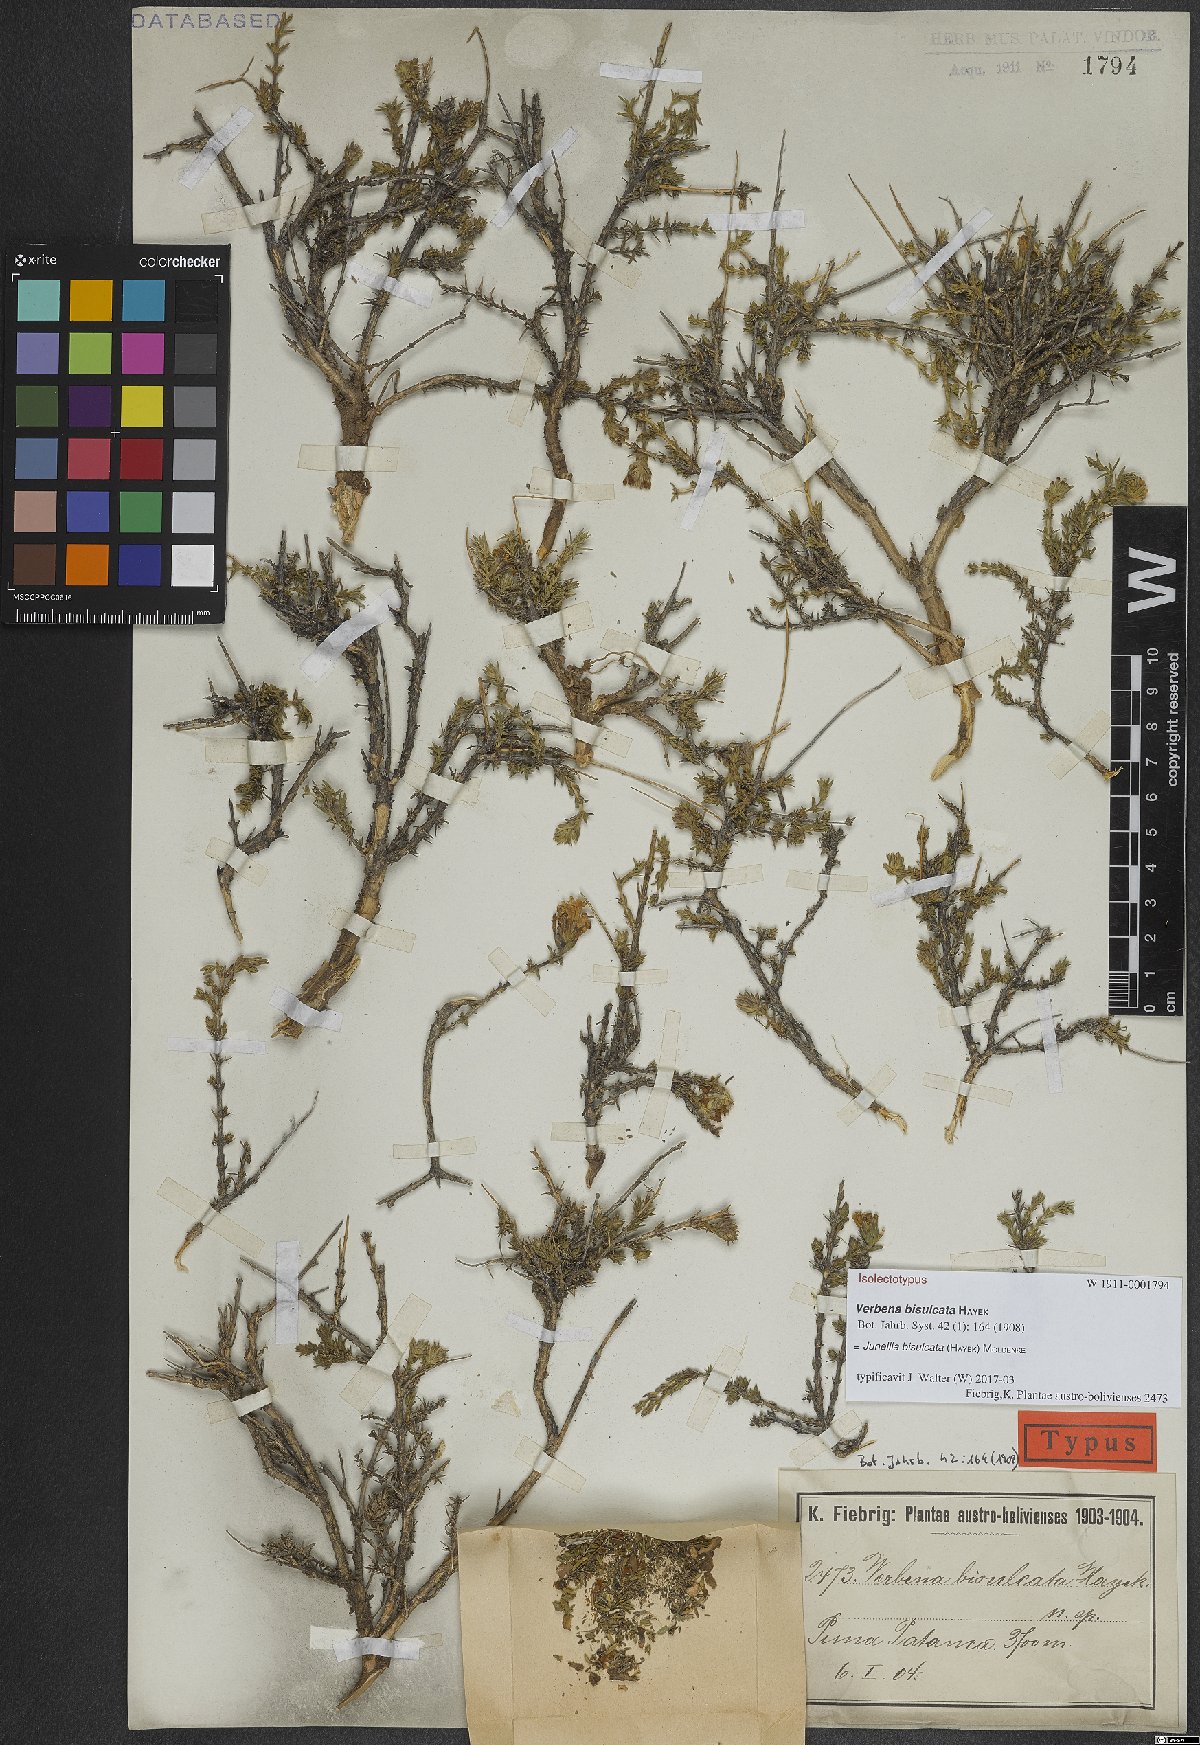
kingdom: Plantae
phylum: Tracheophyta
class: Magnoliopsida
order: Lamiales
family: Verbenaceae
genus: Junellia
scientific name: Junellia bisulcata
